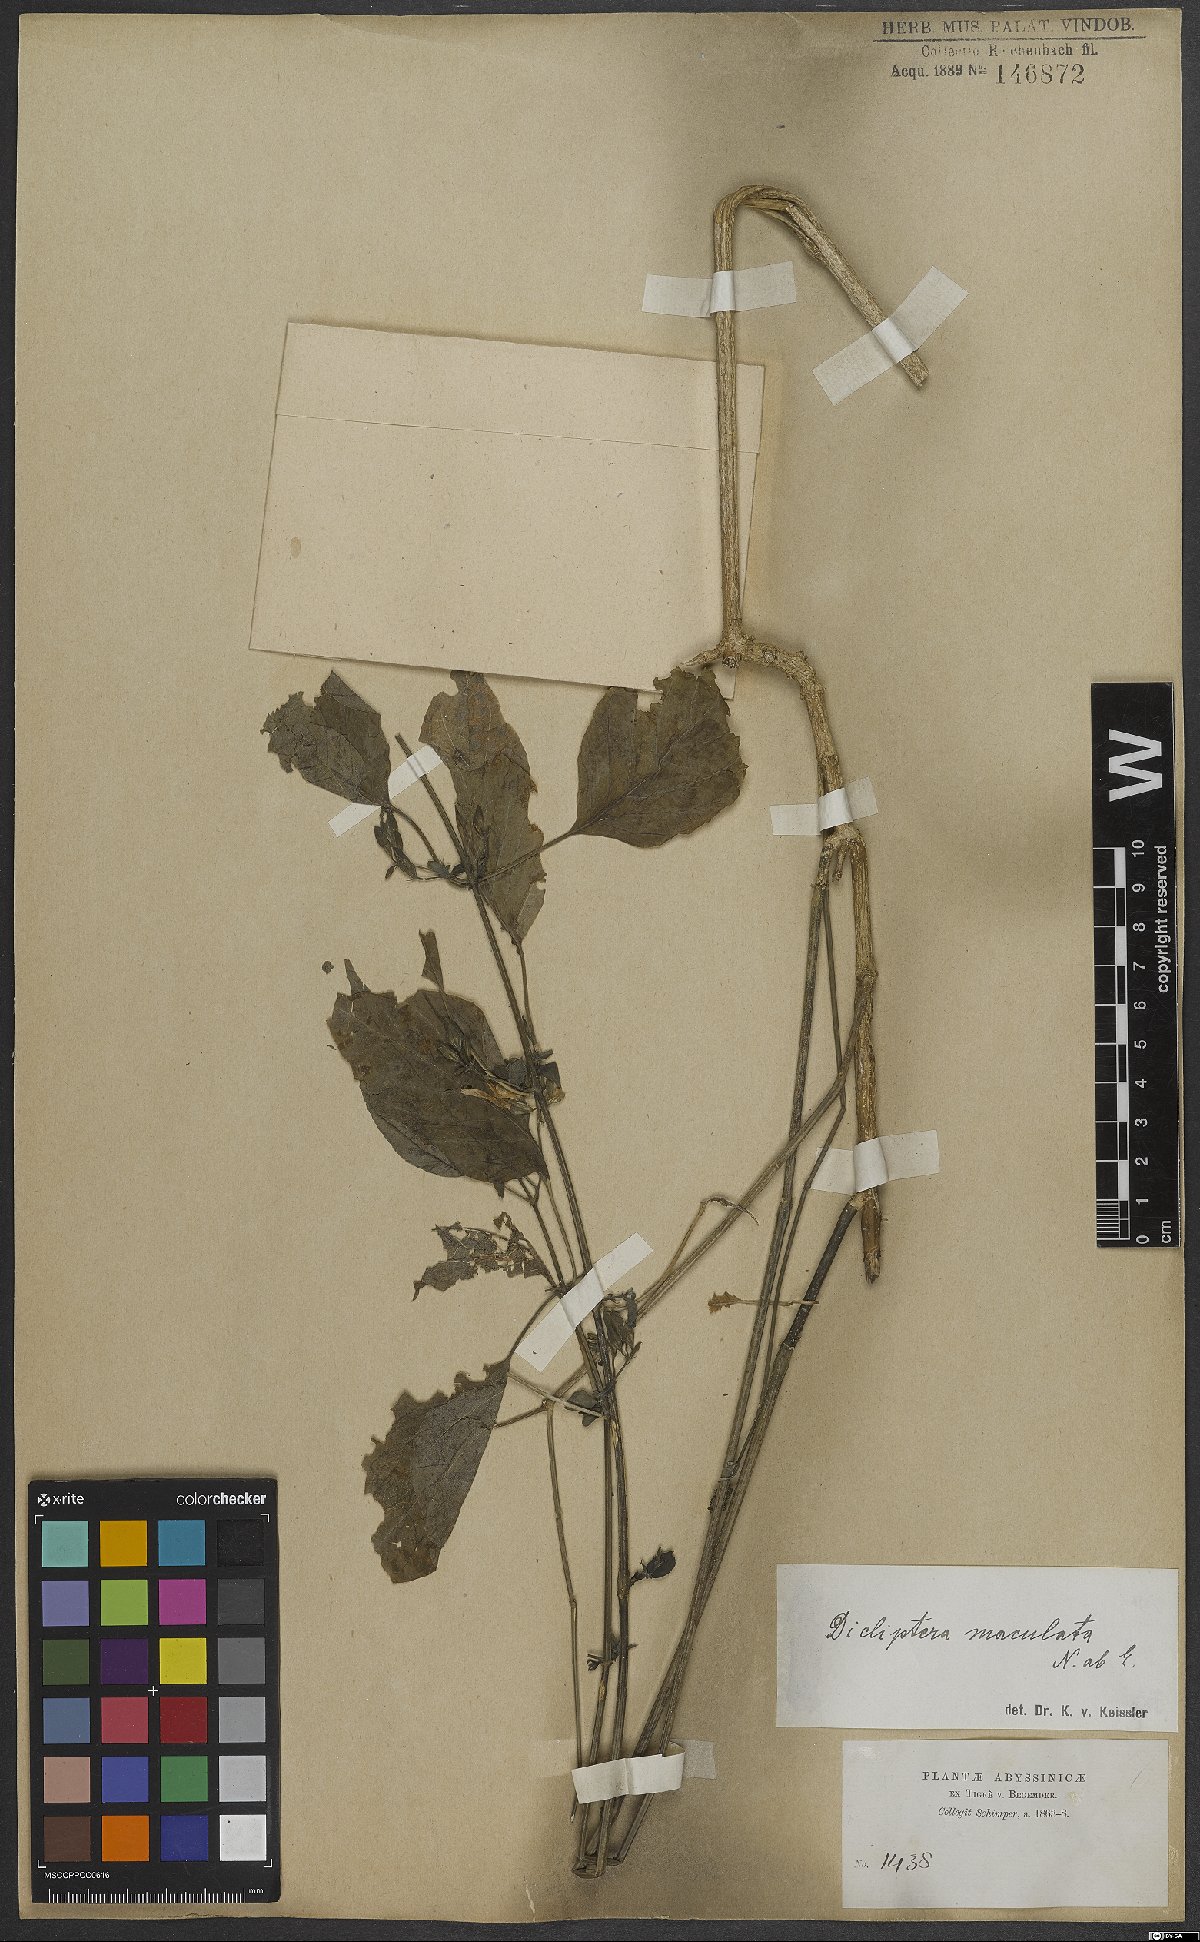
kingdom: Plantae
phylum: Tracheophyta
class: Magnoliopsida
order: Lamiales
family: Acanthaceae
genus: Dicliptera
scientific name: Dicliptera maculata
